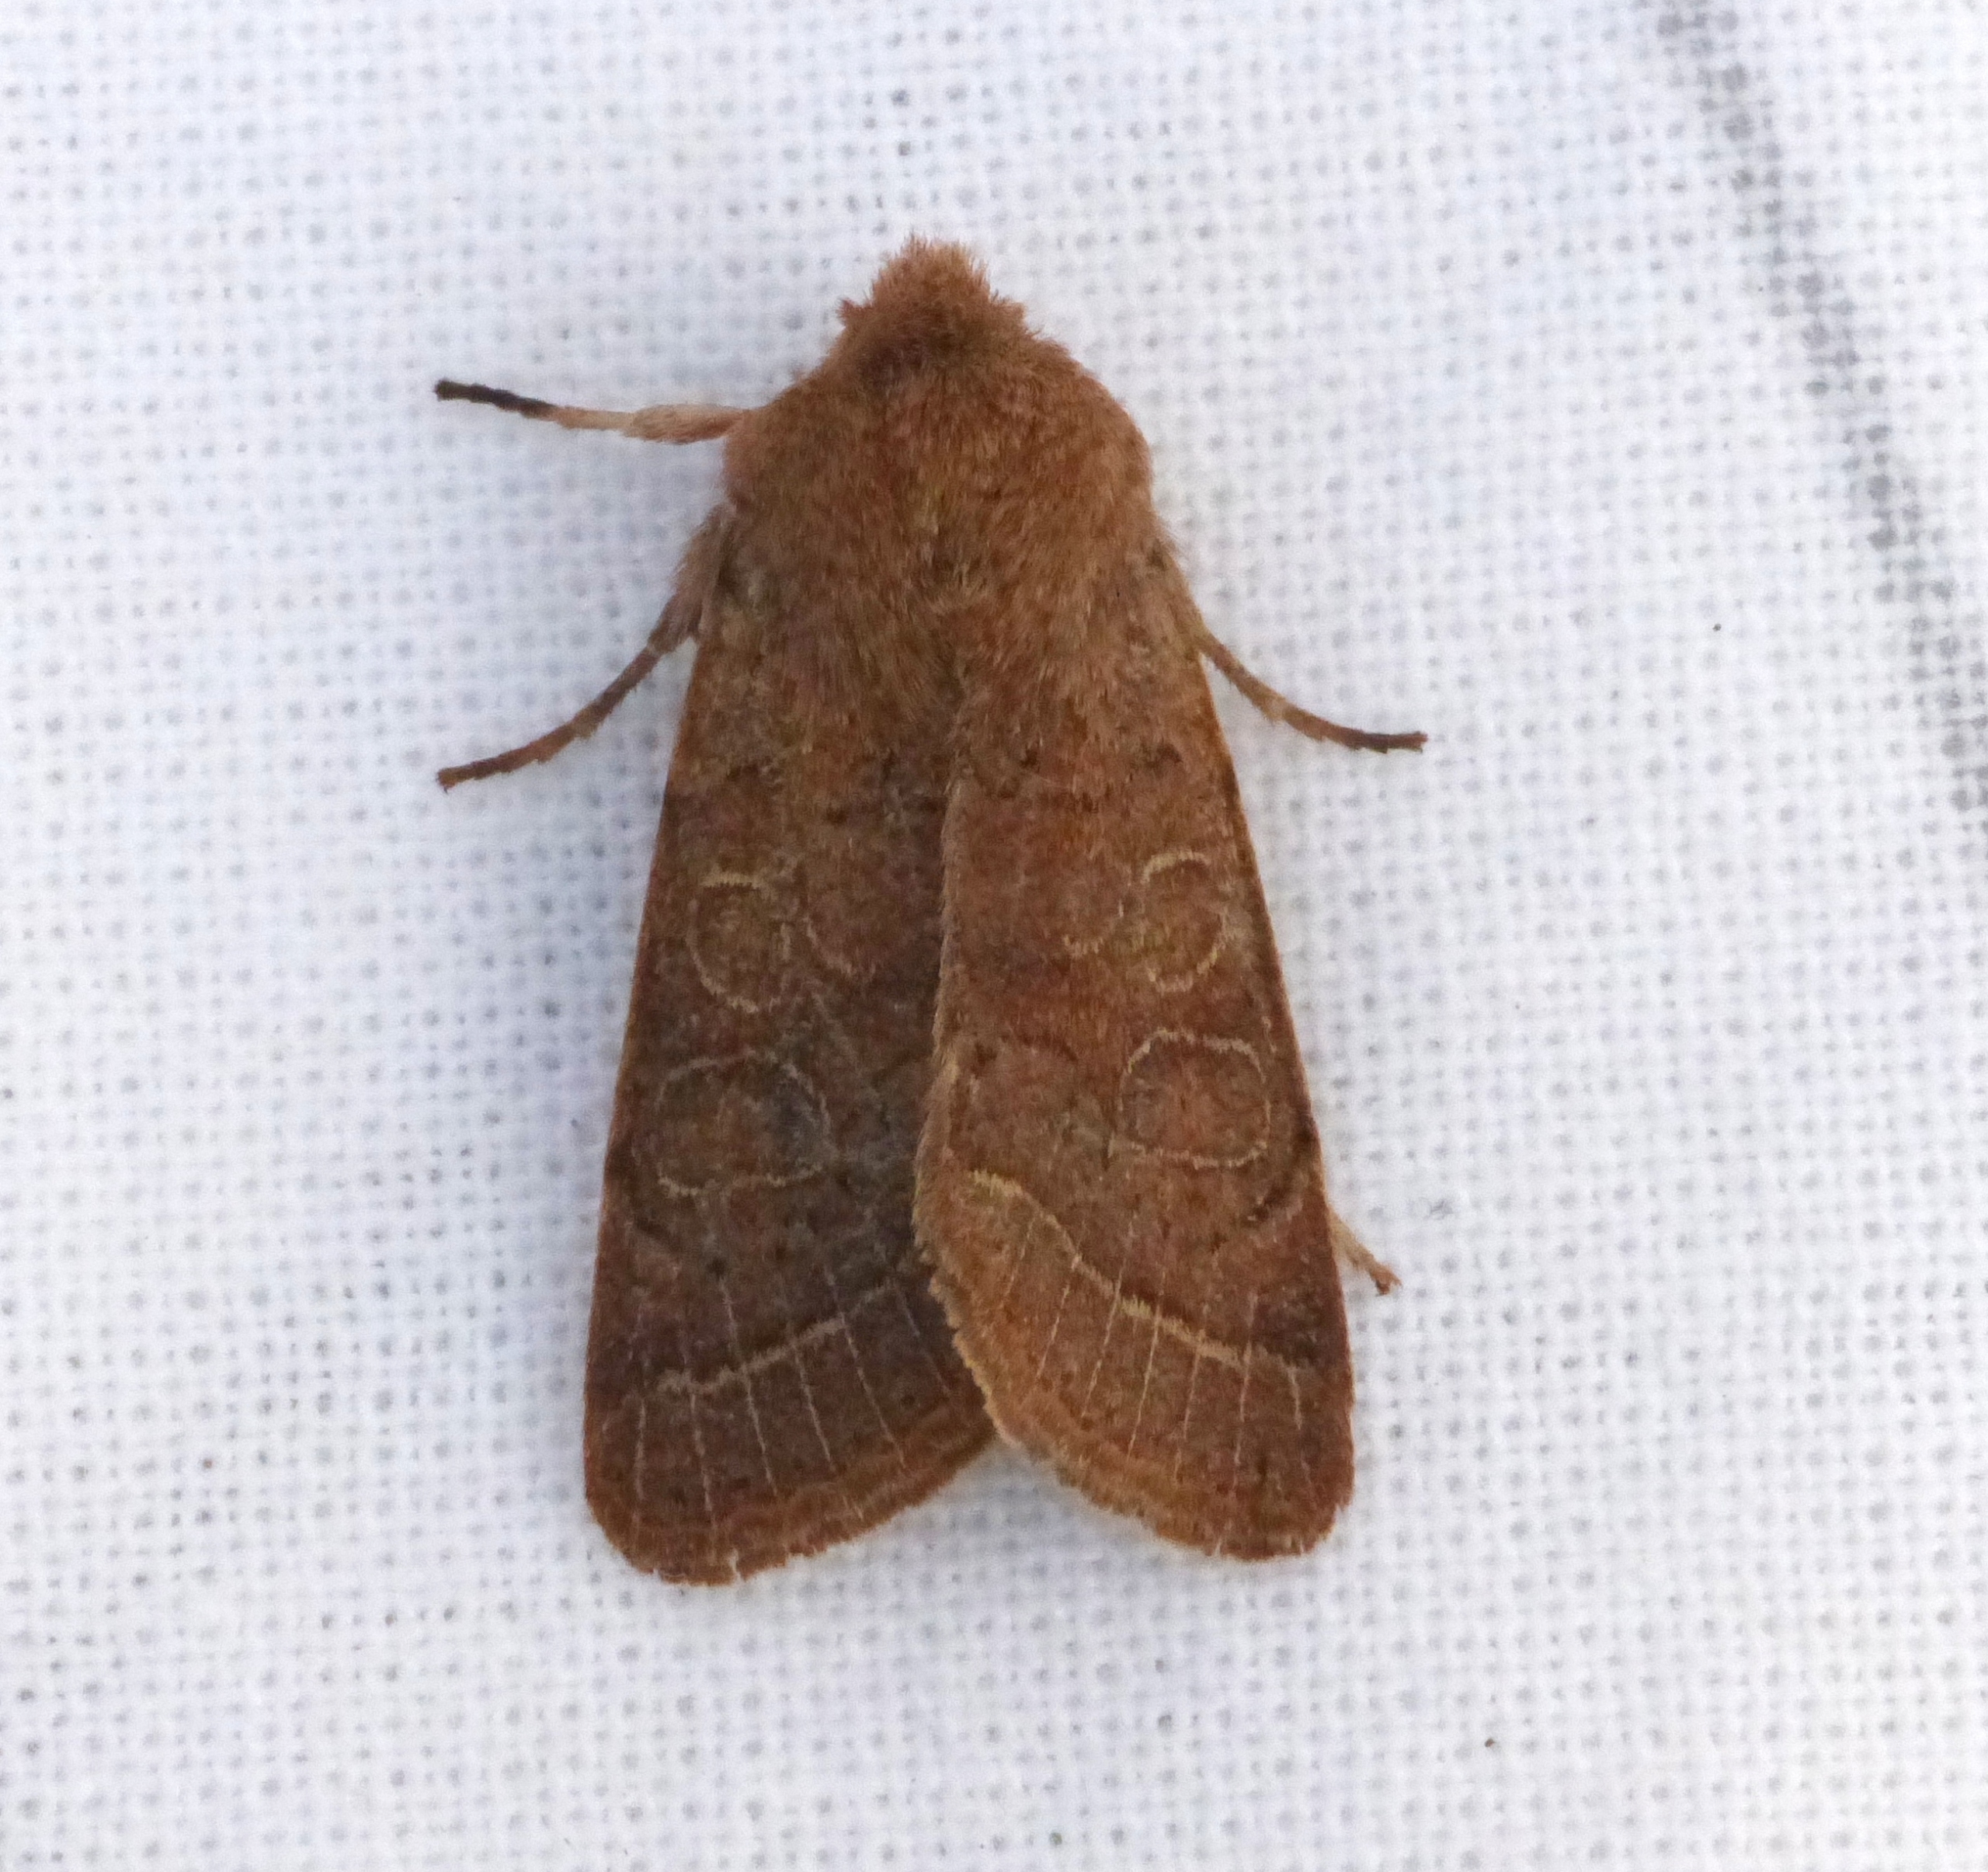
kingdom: Animalia
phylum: Arthropoda
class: Insecta
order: Lepidoptera
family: Noctuidae
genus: Orthosia
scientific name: Orthosia cerasi
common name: Rødgul forårsugle
